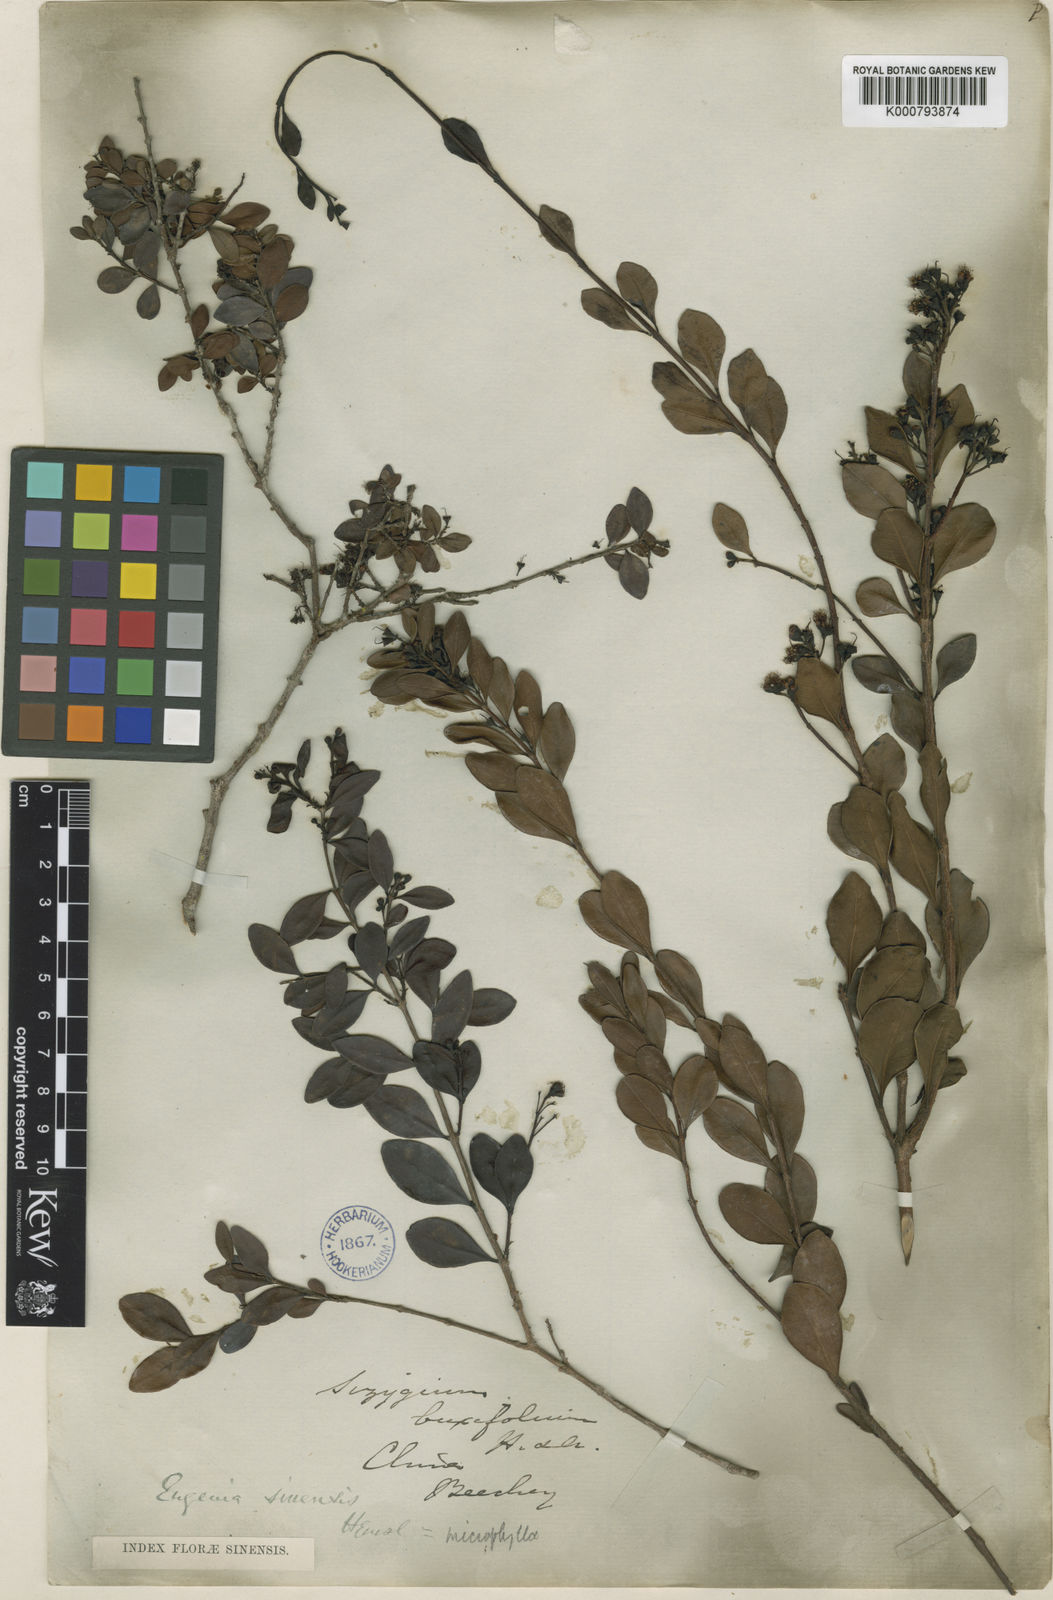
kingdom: Plantae
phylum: Tracheophyta
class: Magnoliopsida
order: Myrtales
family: Myrtaceae
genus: Syzygium
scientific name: Syzygium buxifolium
